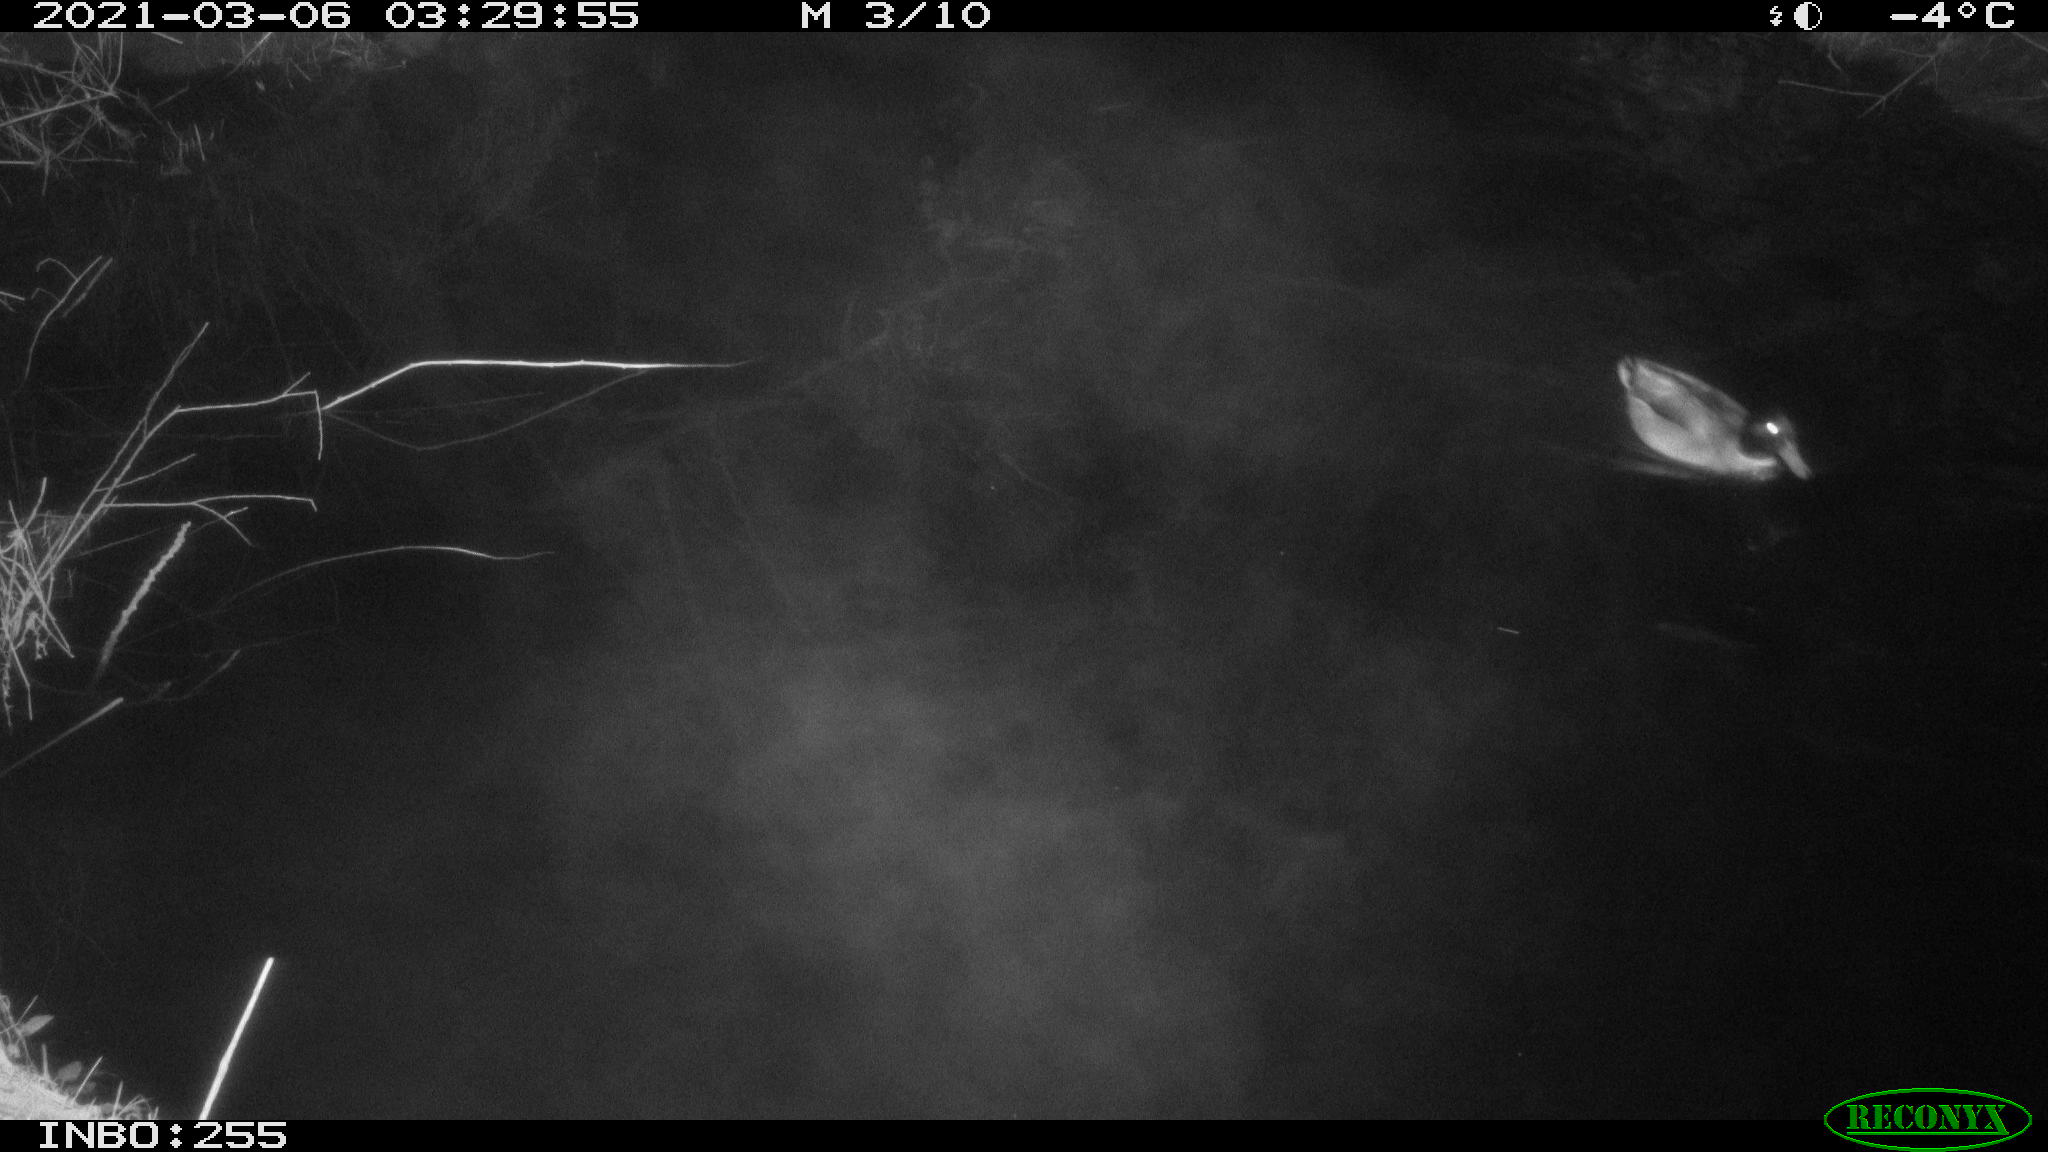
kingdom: Animalia
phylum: Chordata
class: Aves
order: Anseriformes
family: Anatidae
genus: Anas
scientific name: Anas platyrhynchos
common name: Mallard
